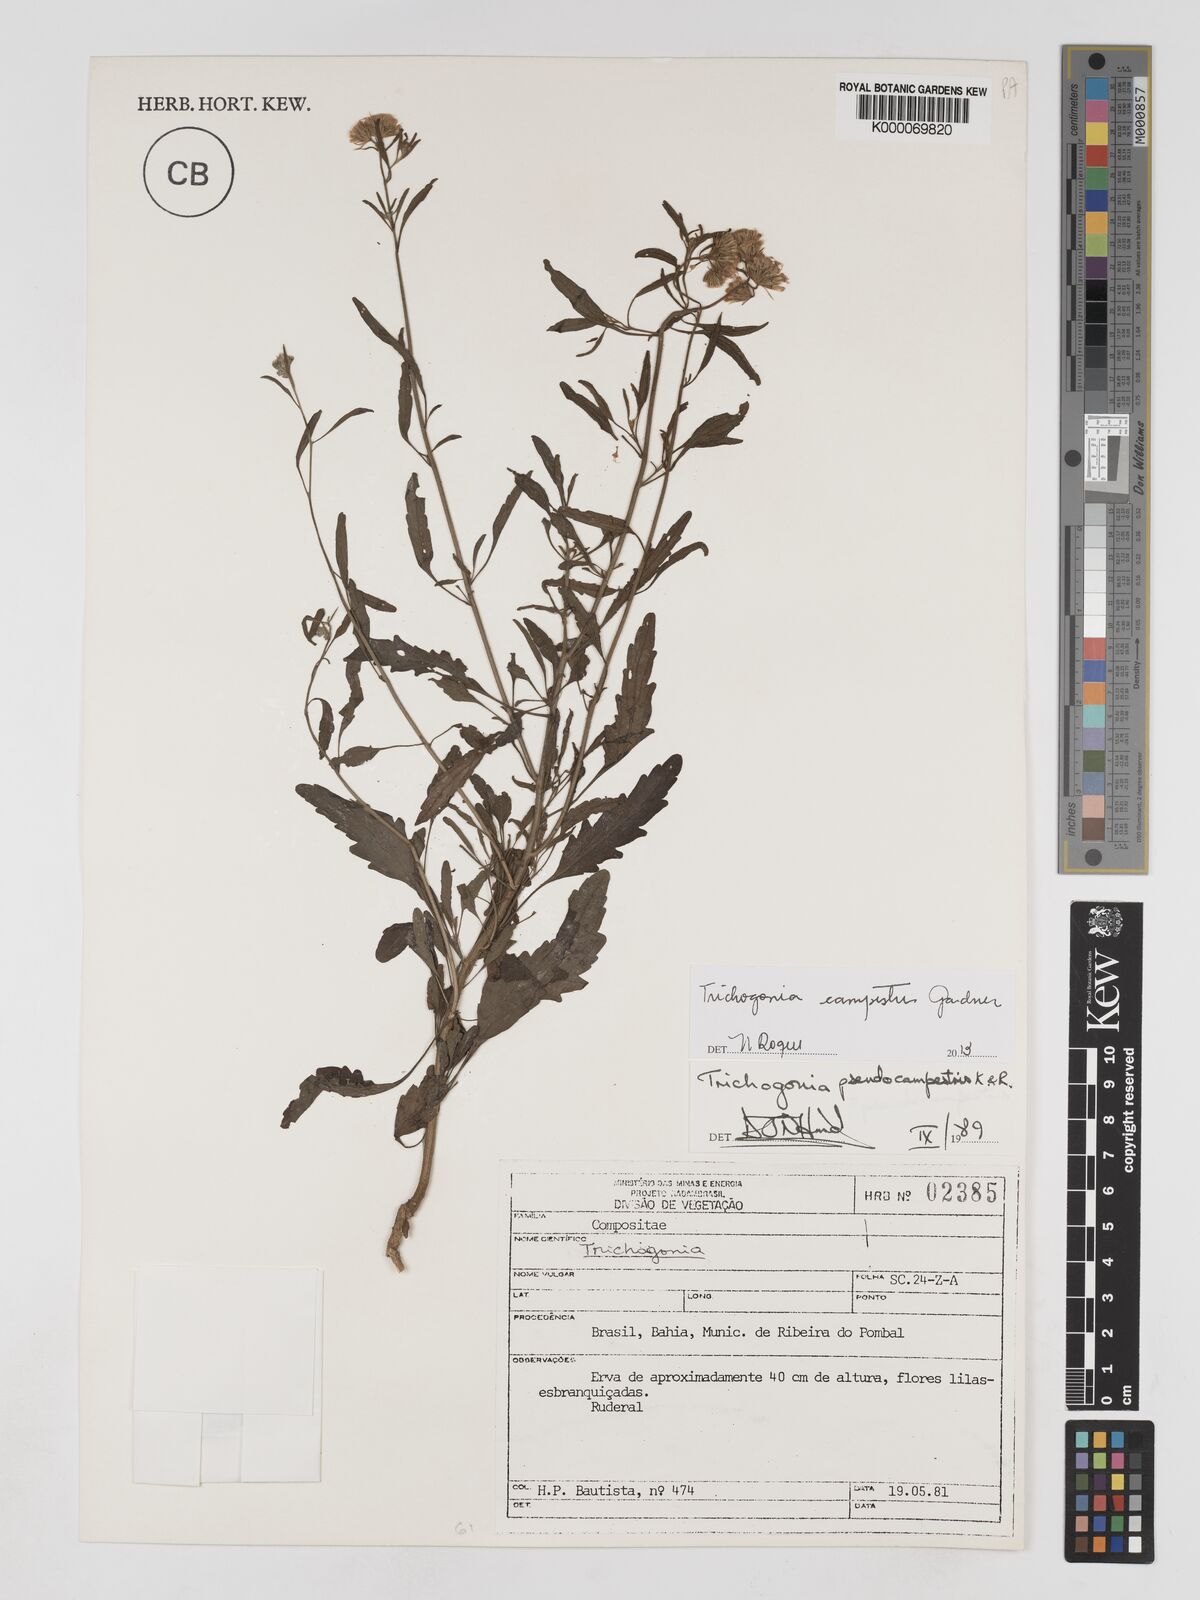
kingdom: Plantae
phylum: Tracheophyta
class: Magnoliopsida
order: Asterales
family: Asteraceae
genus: Trichogonia
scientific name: Trichogonia campestris
